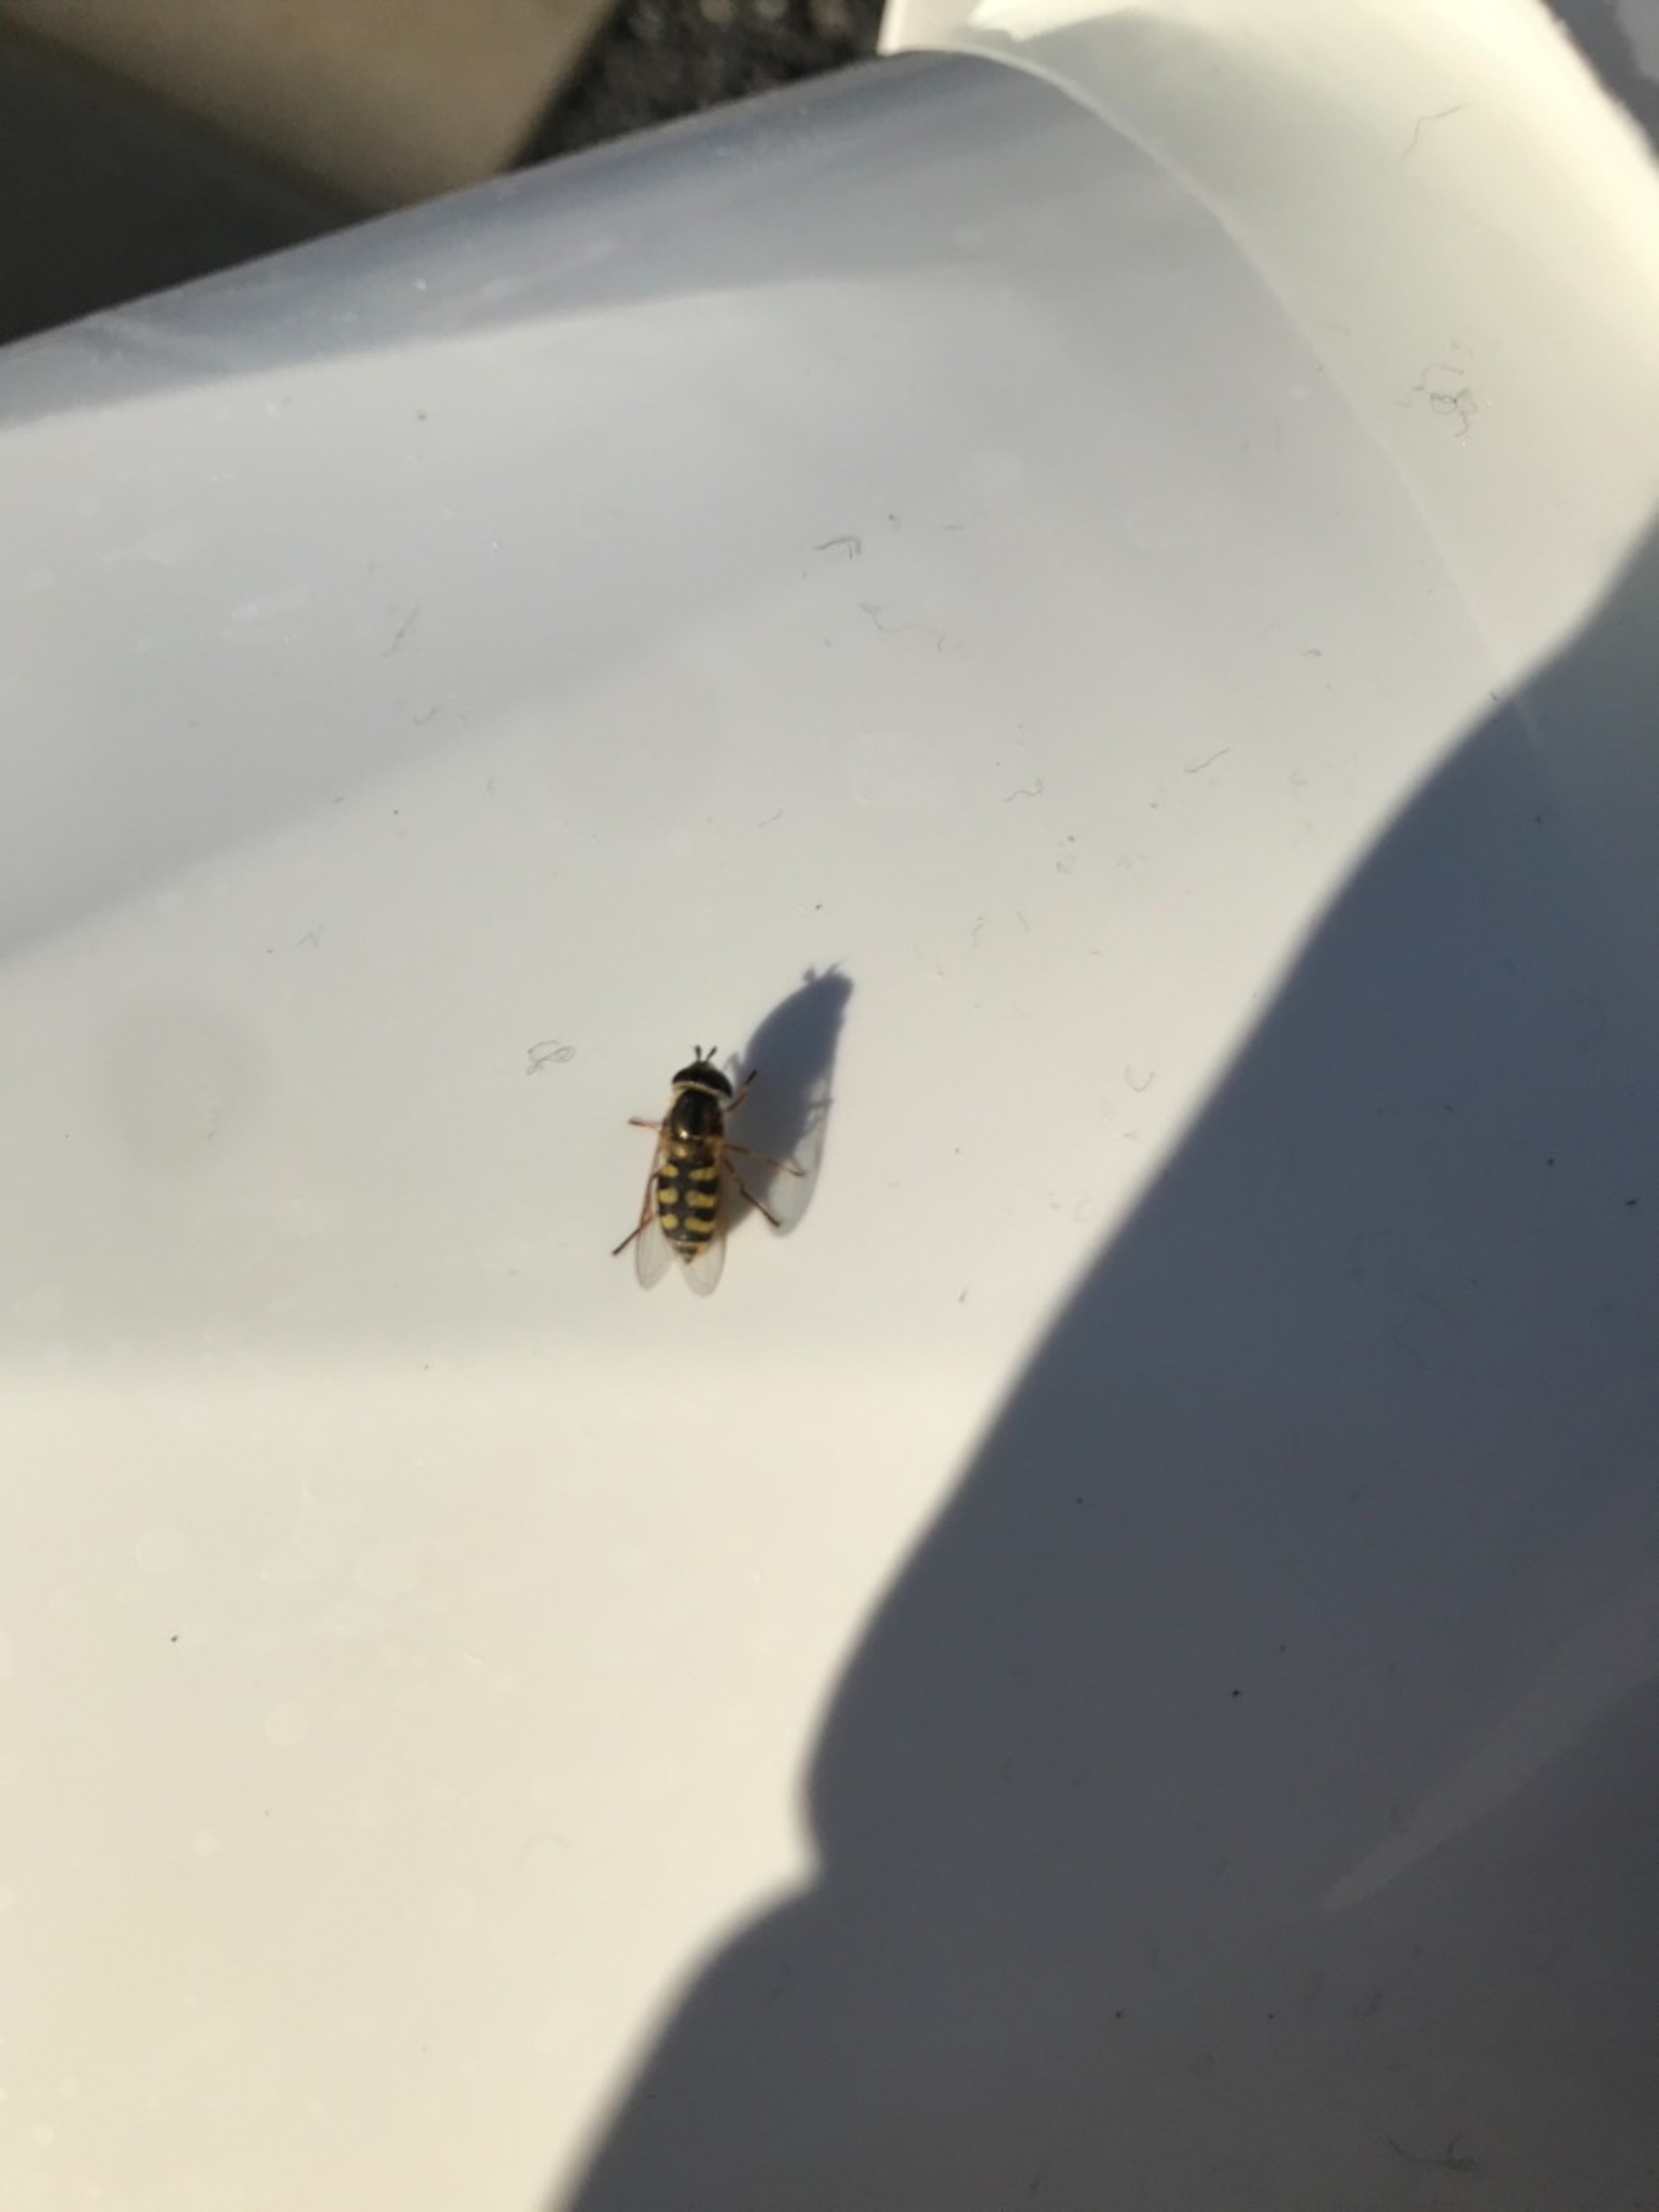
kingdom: Animalia
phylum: Arthropoda
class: Insecta
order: Diptera
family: Syrphidae
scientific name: Syrphidae
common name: Svirrefluer
